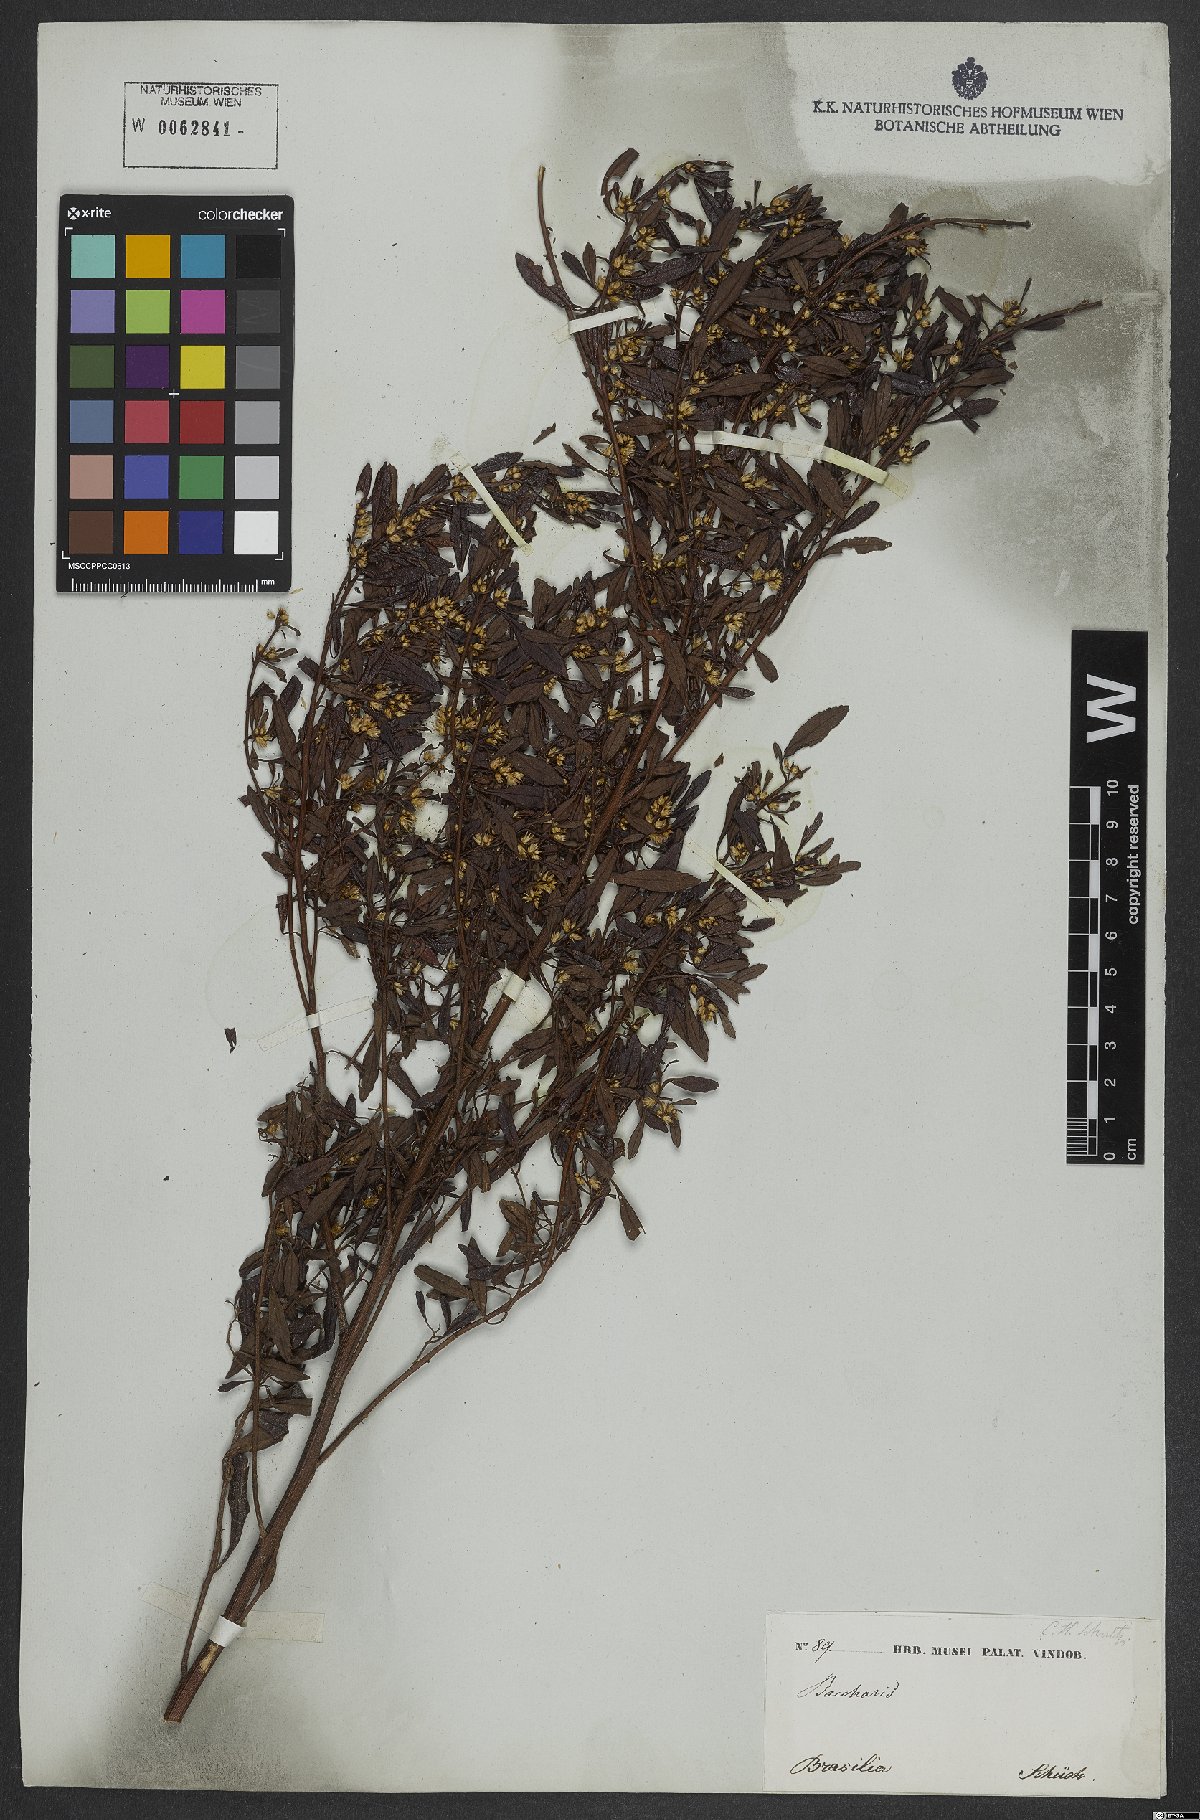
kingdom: Plantae
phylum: Tracheophyta
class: Magnoliopsida
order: Asterales
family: Asteraceae
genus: Baccharis
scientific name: Baccharis
